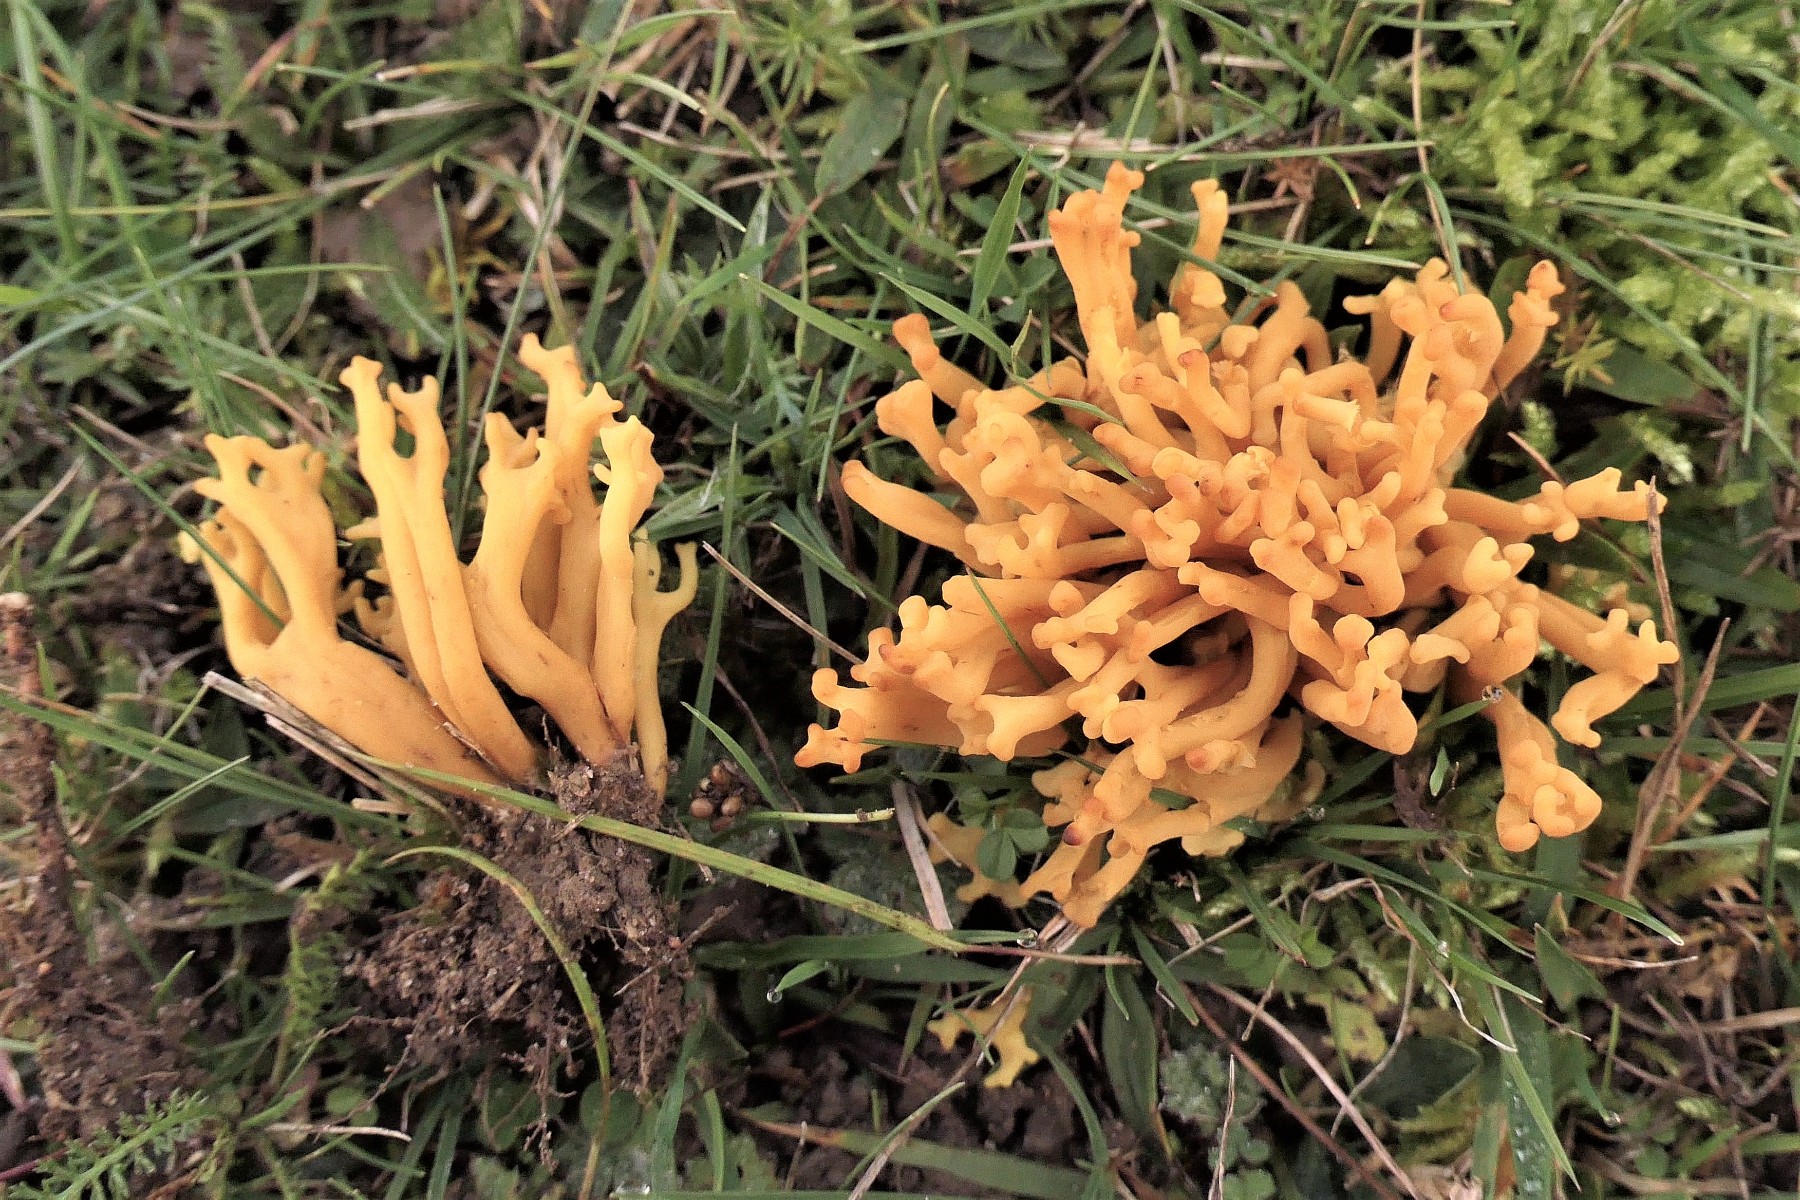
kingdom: Fungi
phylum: Basidiomycota
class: Agaricomycetes
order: Agaricales
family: Clavariaceae
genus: Clavulinopsis
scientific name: Clavulinopsis corniculata
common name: eng-køllesvamp
